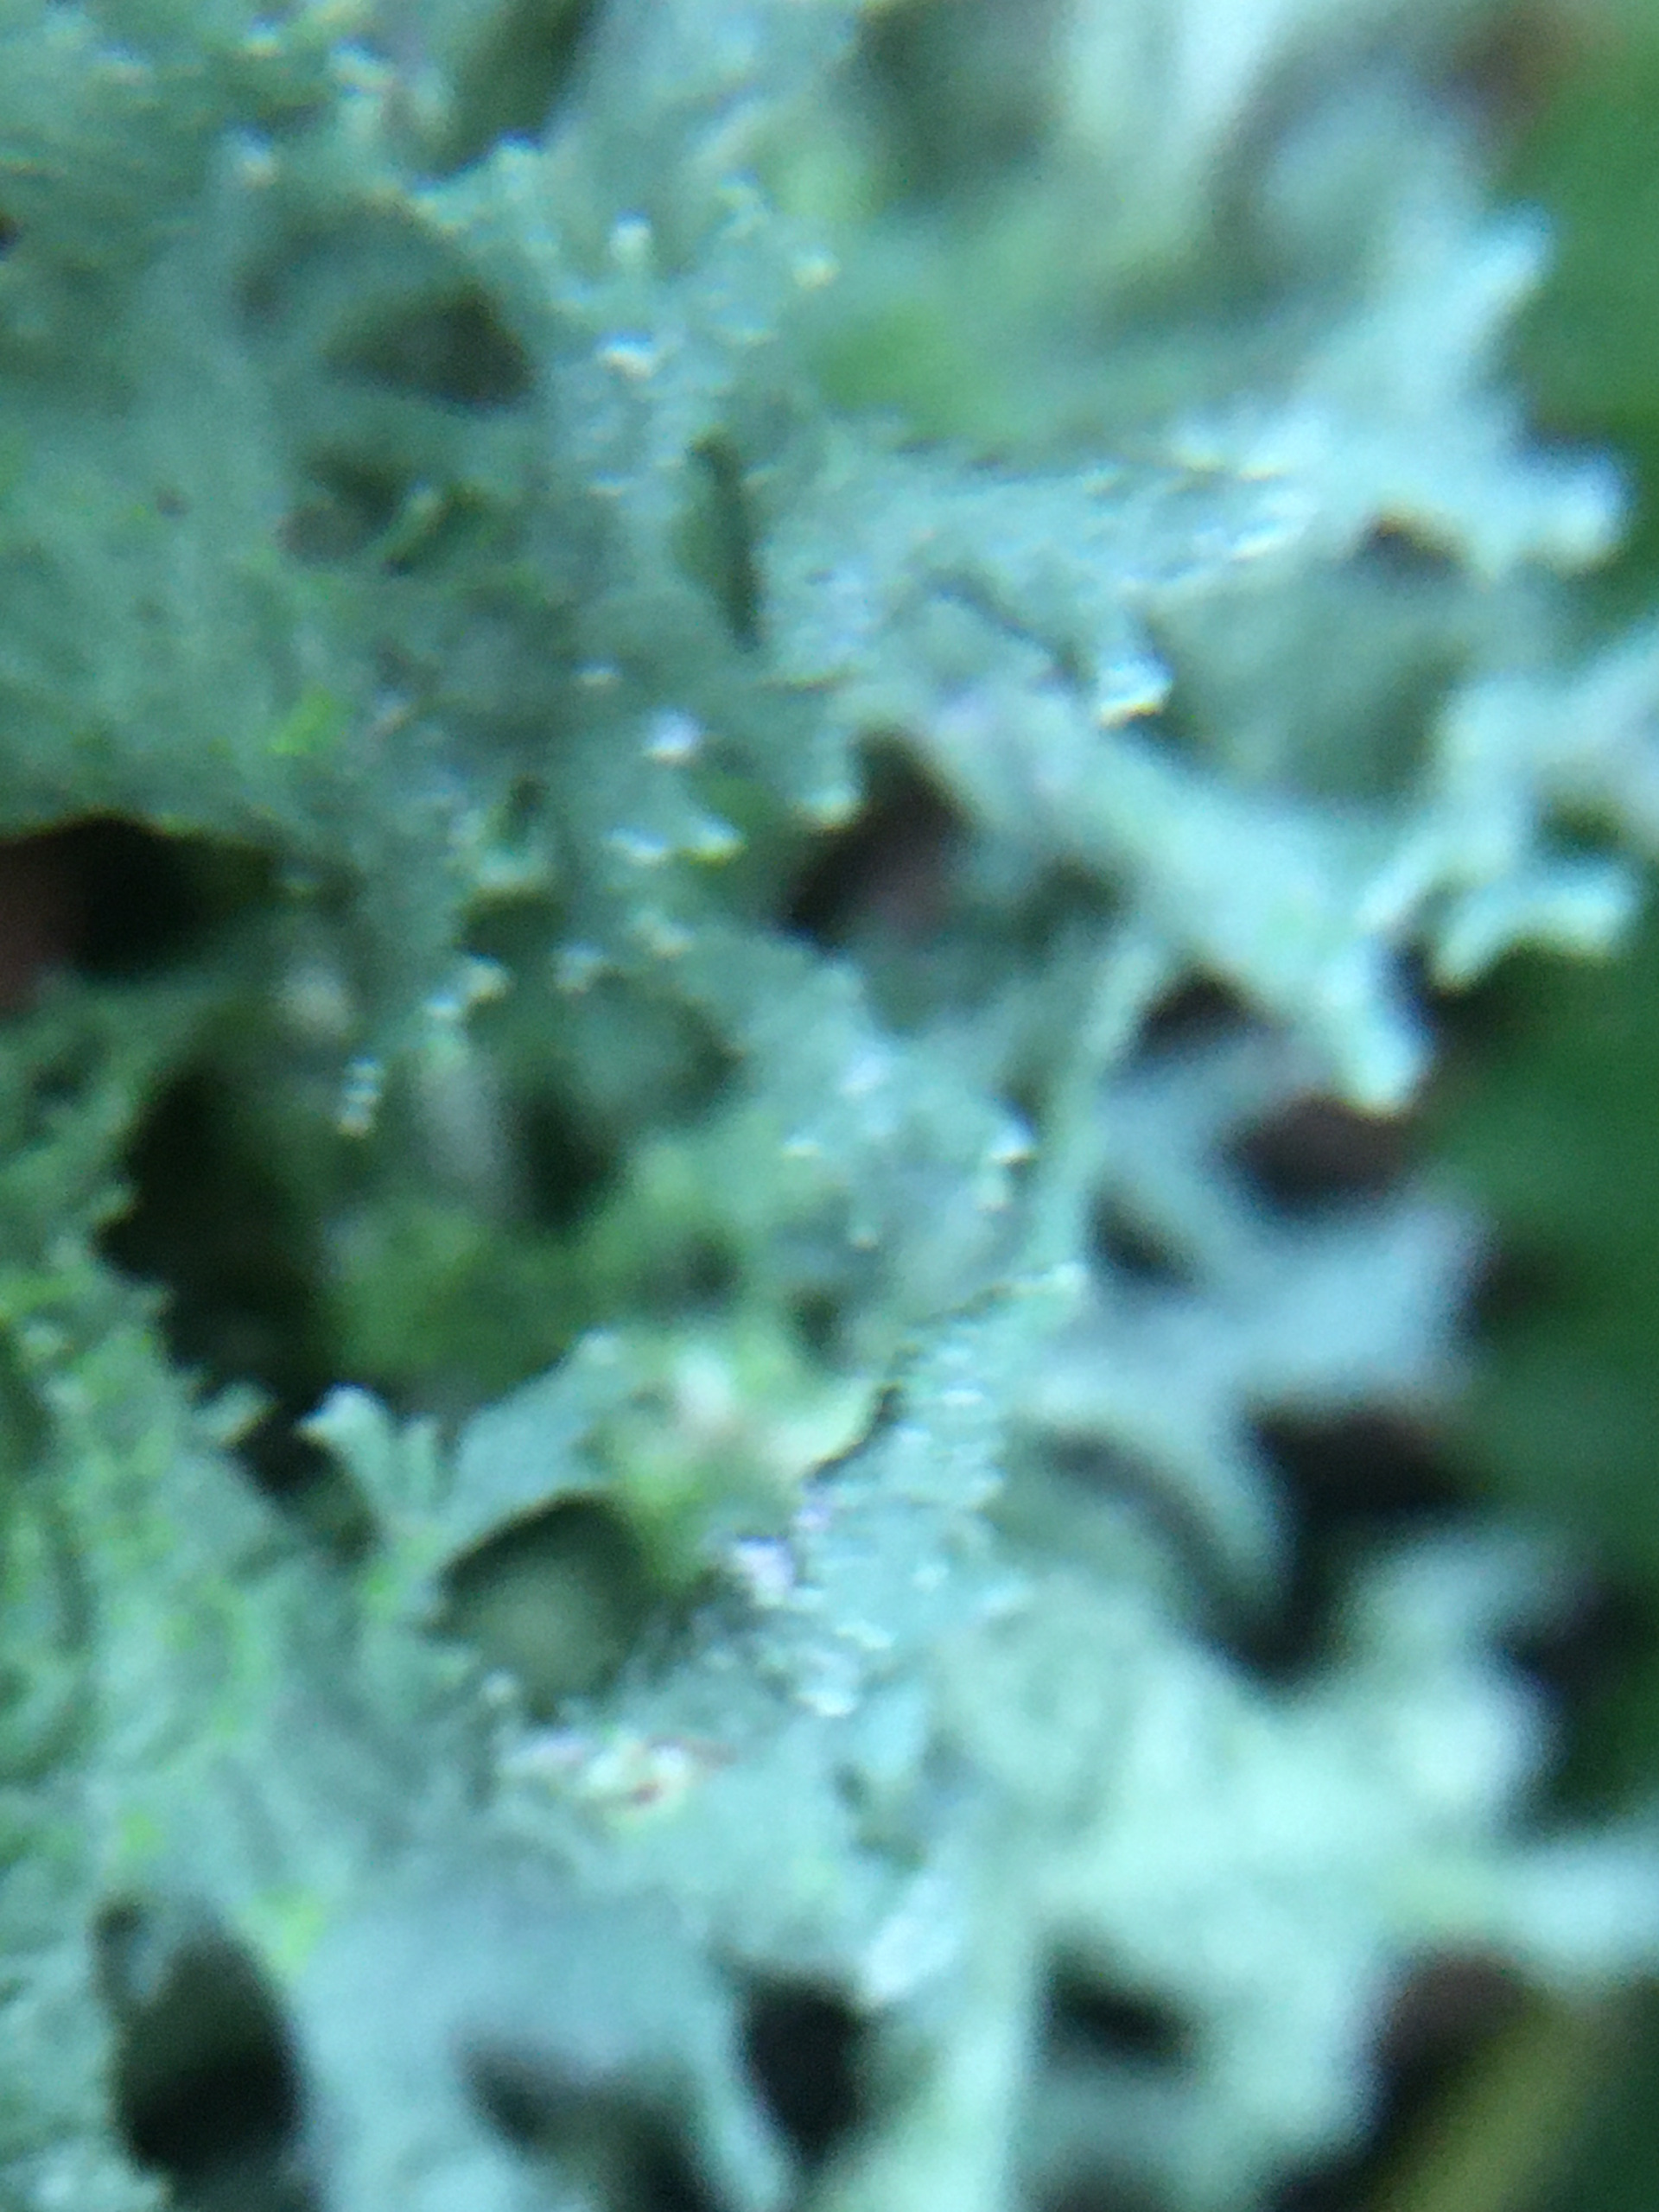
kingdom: Fungi
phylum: Ascomycota
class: Lecanoromycetes
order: Lecanorales
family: Parmeliaceae
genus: Evernia
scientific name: Evernia prunastri
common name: Almindelig slåenlav
